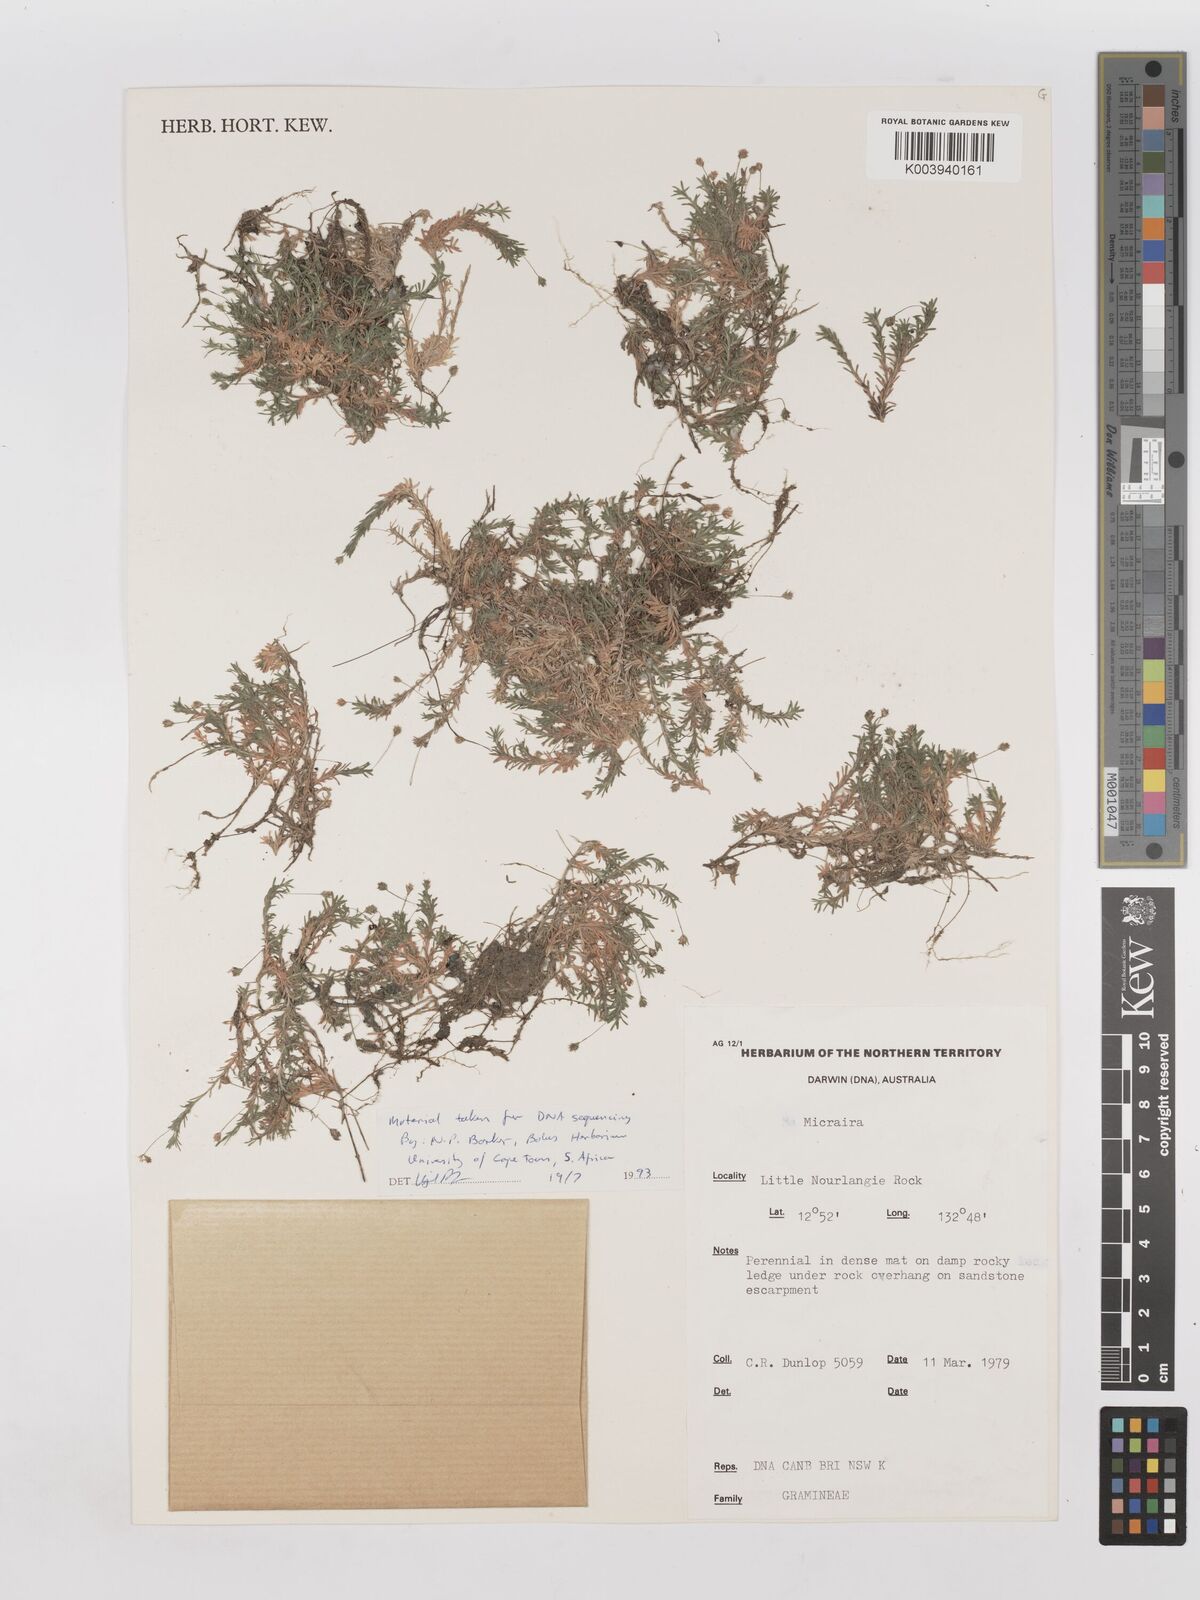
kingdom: Plantae
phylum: Tracheophyta
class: Liliopsida
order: Poales
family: Poaceae
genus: Micraira
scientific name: Micraira subspicata
